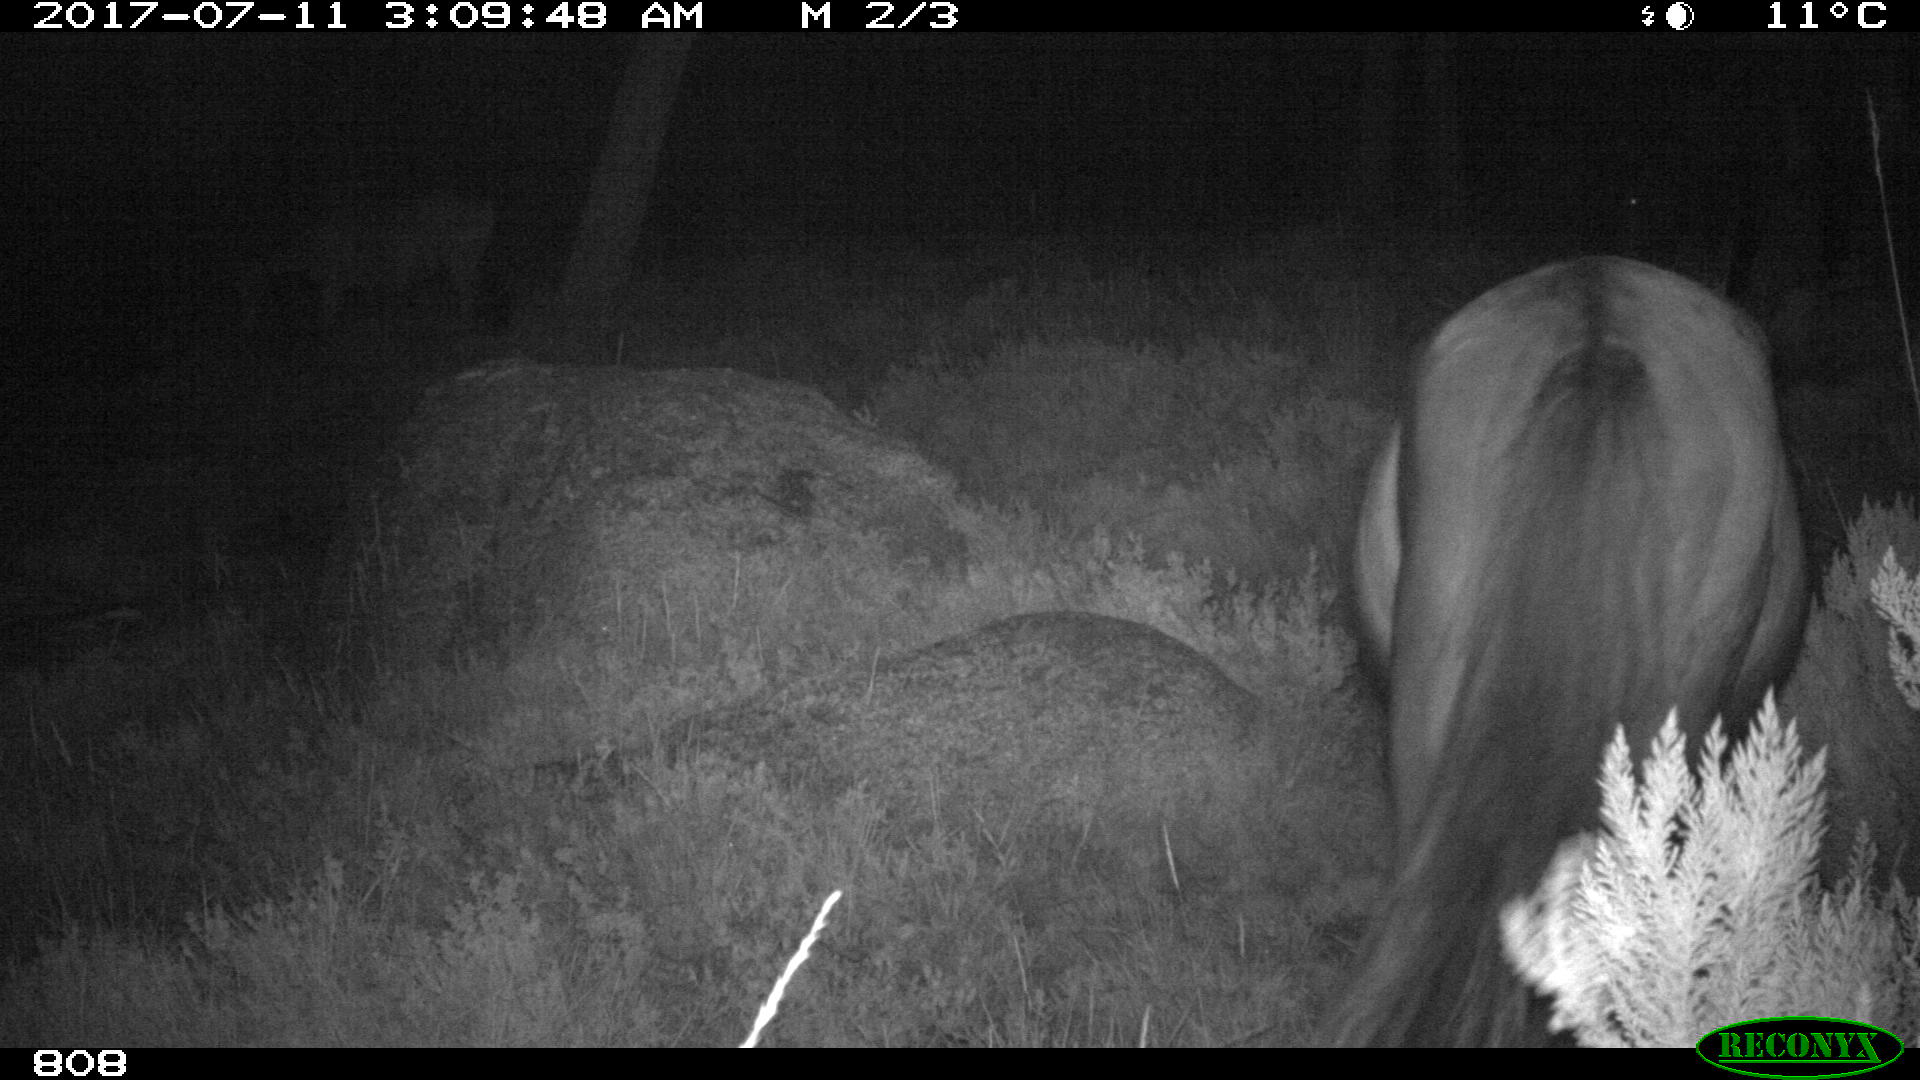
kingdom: Animalia
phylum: Chordata
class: Mammalia
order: Perissodactyla
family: Equidae
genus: Equus
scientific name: Equus caballus
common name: Horse
